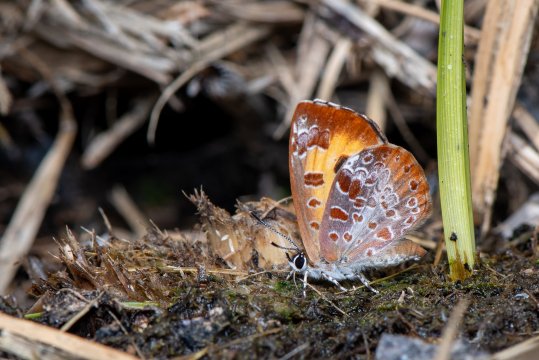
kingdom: Animalia
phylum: Arthropoda
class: Insecta
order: Lepidoptera
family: Lycaenidae
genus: Feniseca
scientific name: Feniseca tarquinius
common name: Harvester
